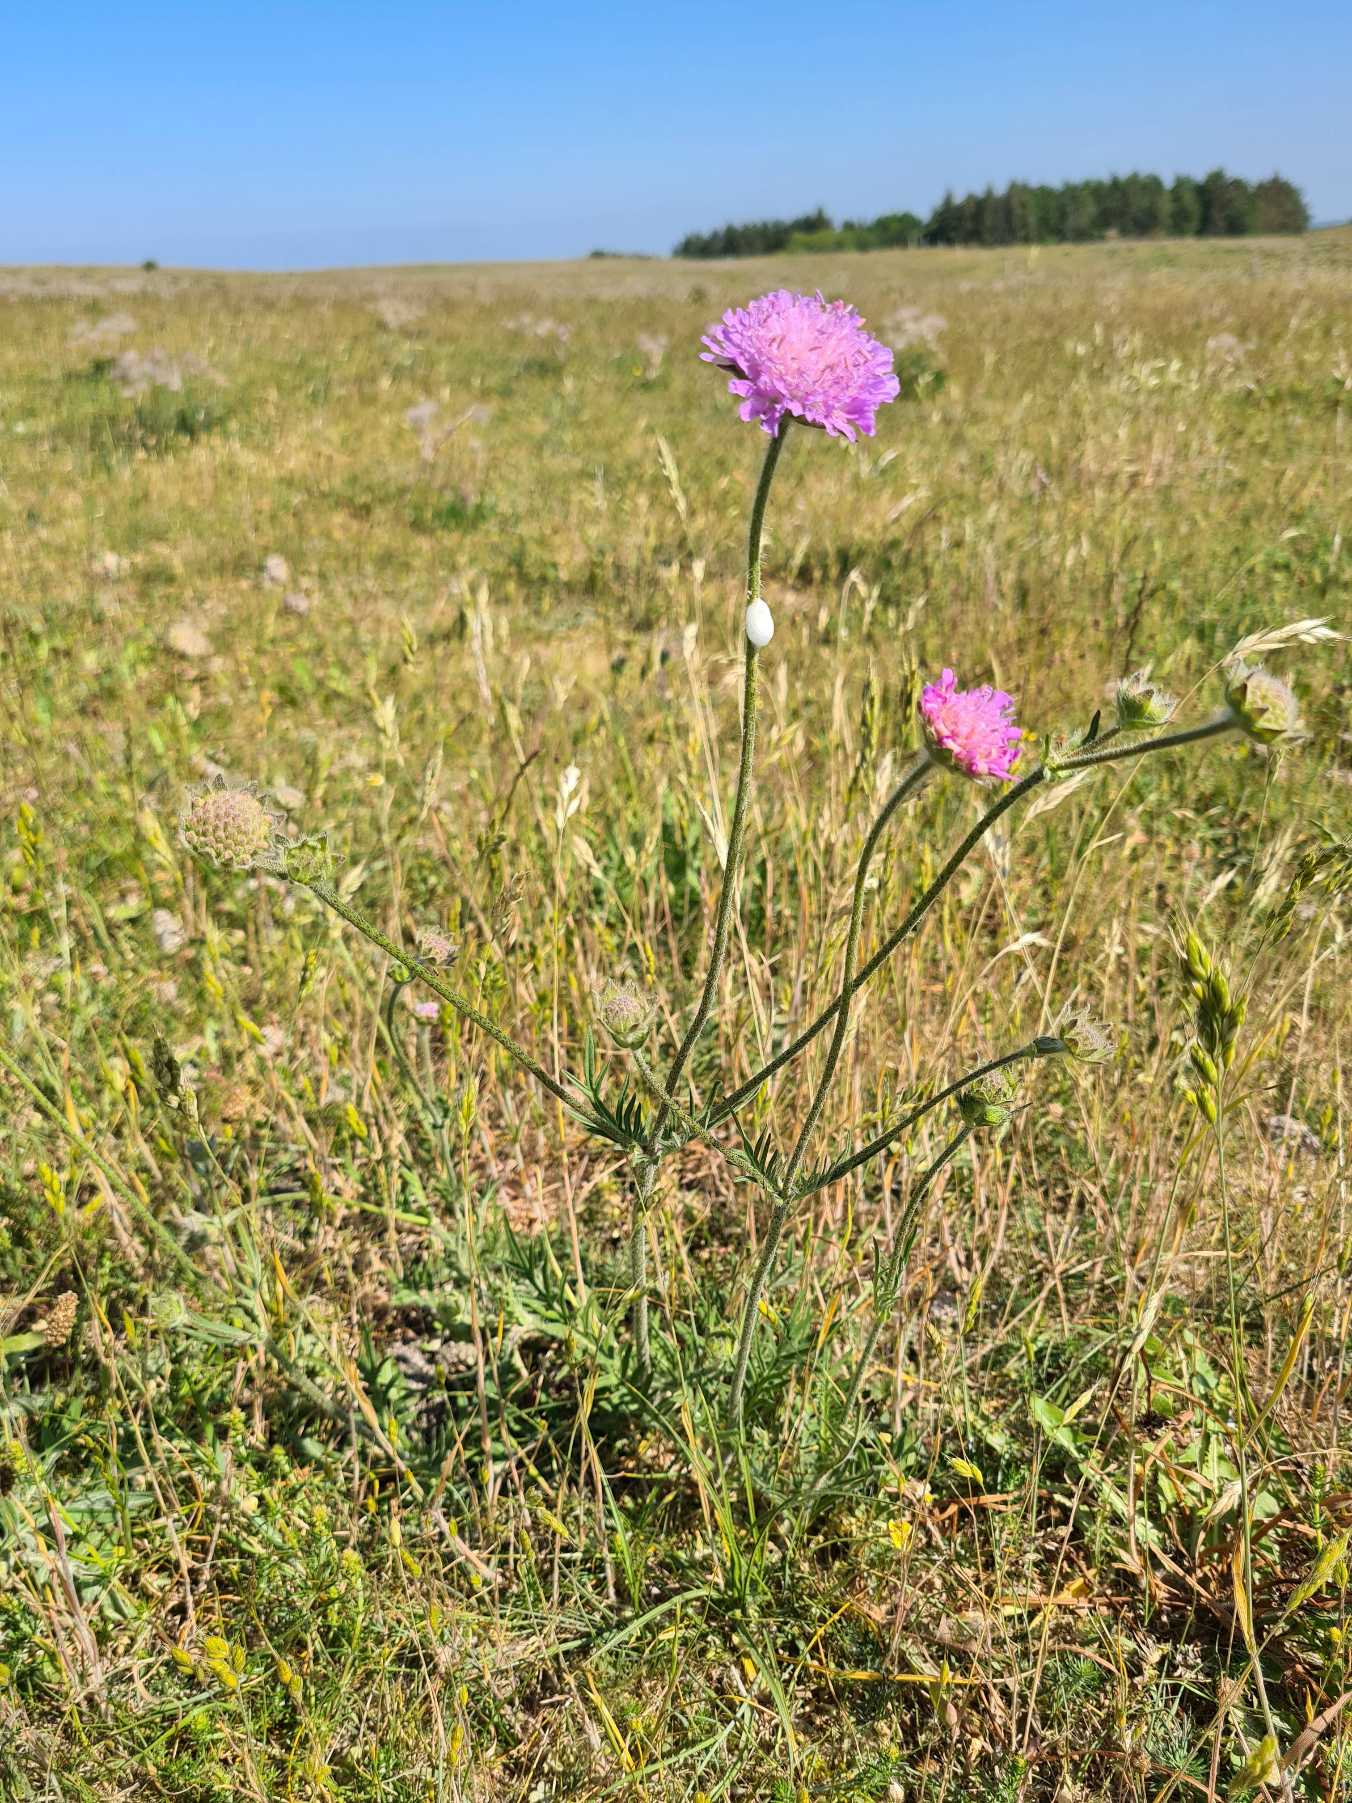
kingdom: Plantae
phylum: Tracheophyta
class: Magnoliopsida
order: Dipsacales
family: Caprifoliaceae
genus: Knautia
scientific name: Knautia arvensis
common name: Blåhat
